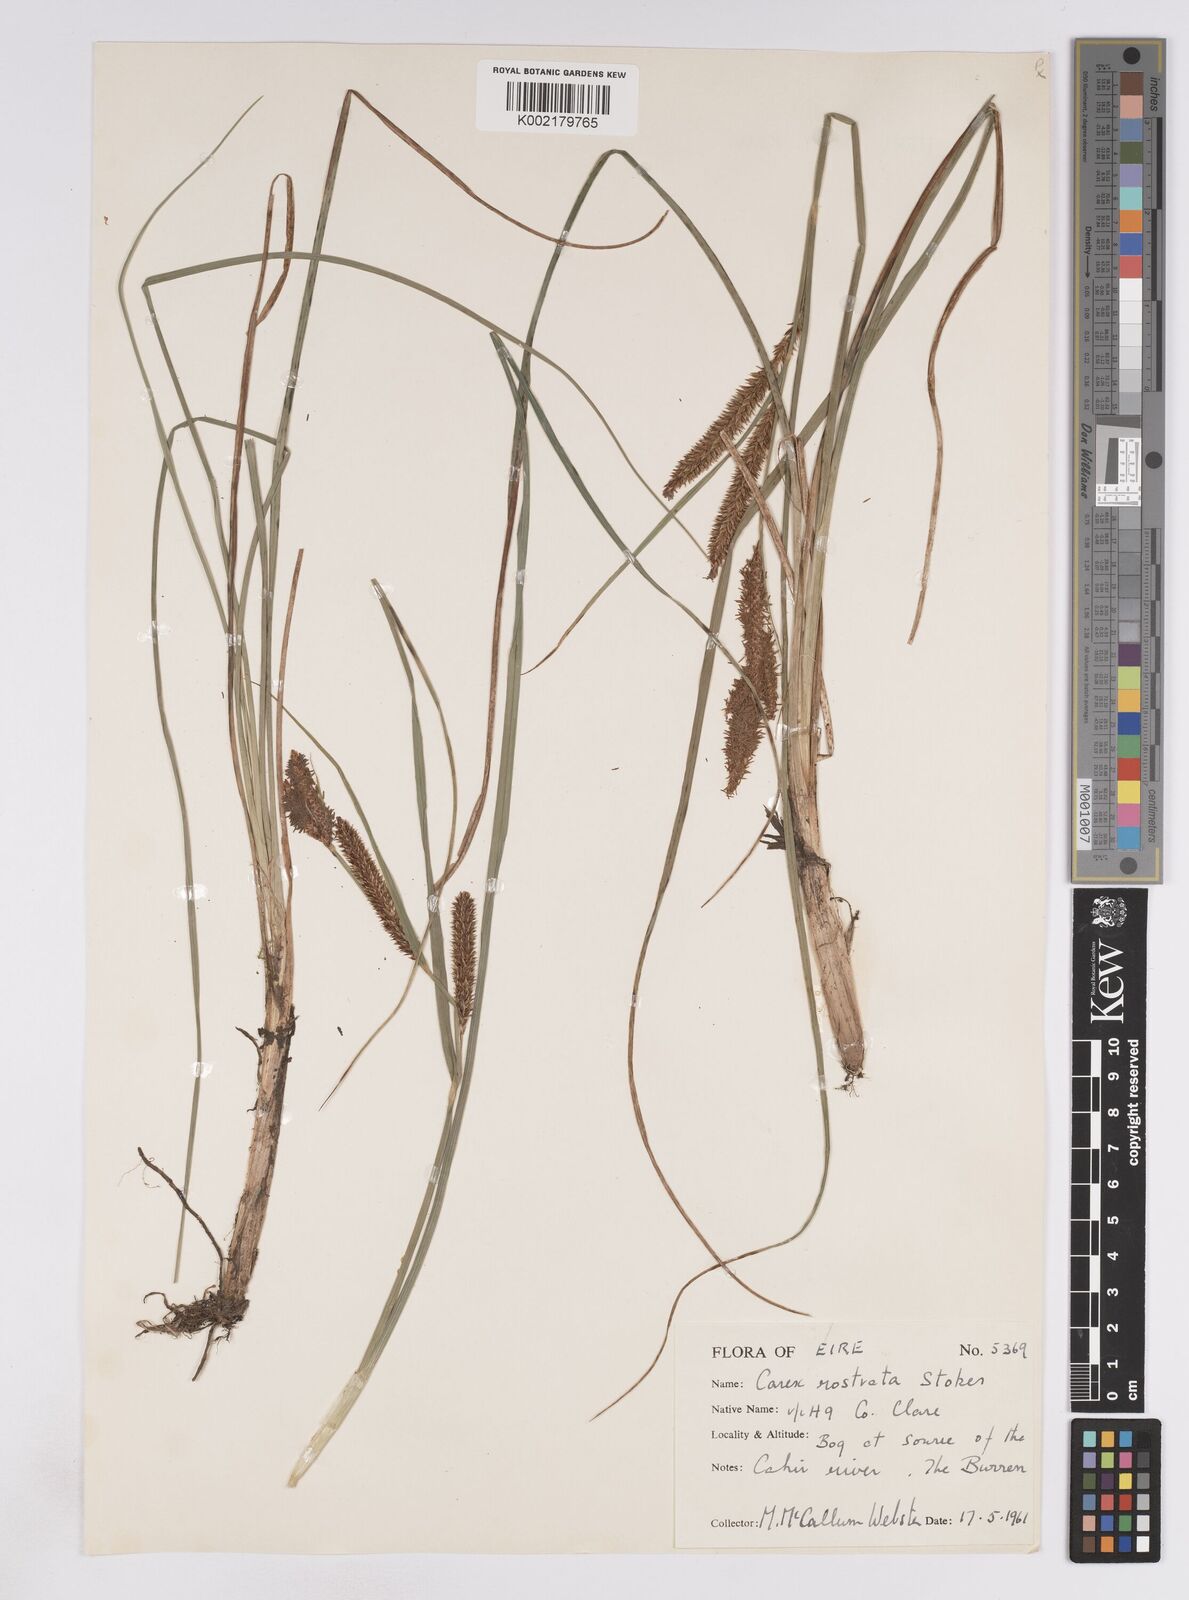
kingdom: Plantae
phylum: Tracheophyta
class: Liliopsida
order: Poales
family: Cyperaceae
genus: Carex
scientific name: Carex rostrata
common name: Bottle sedge
